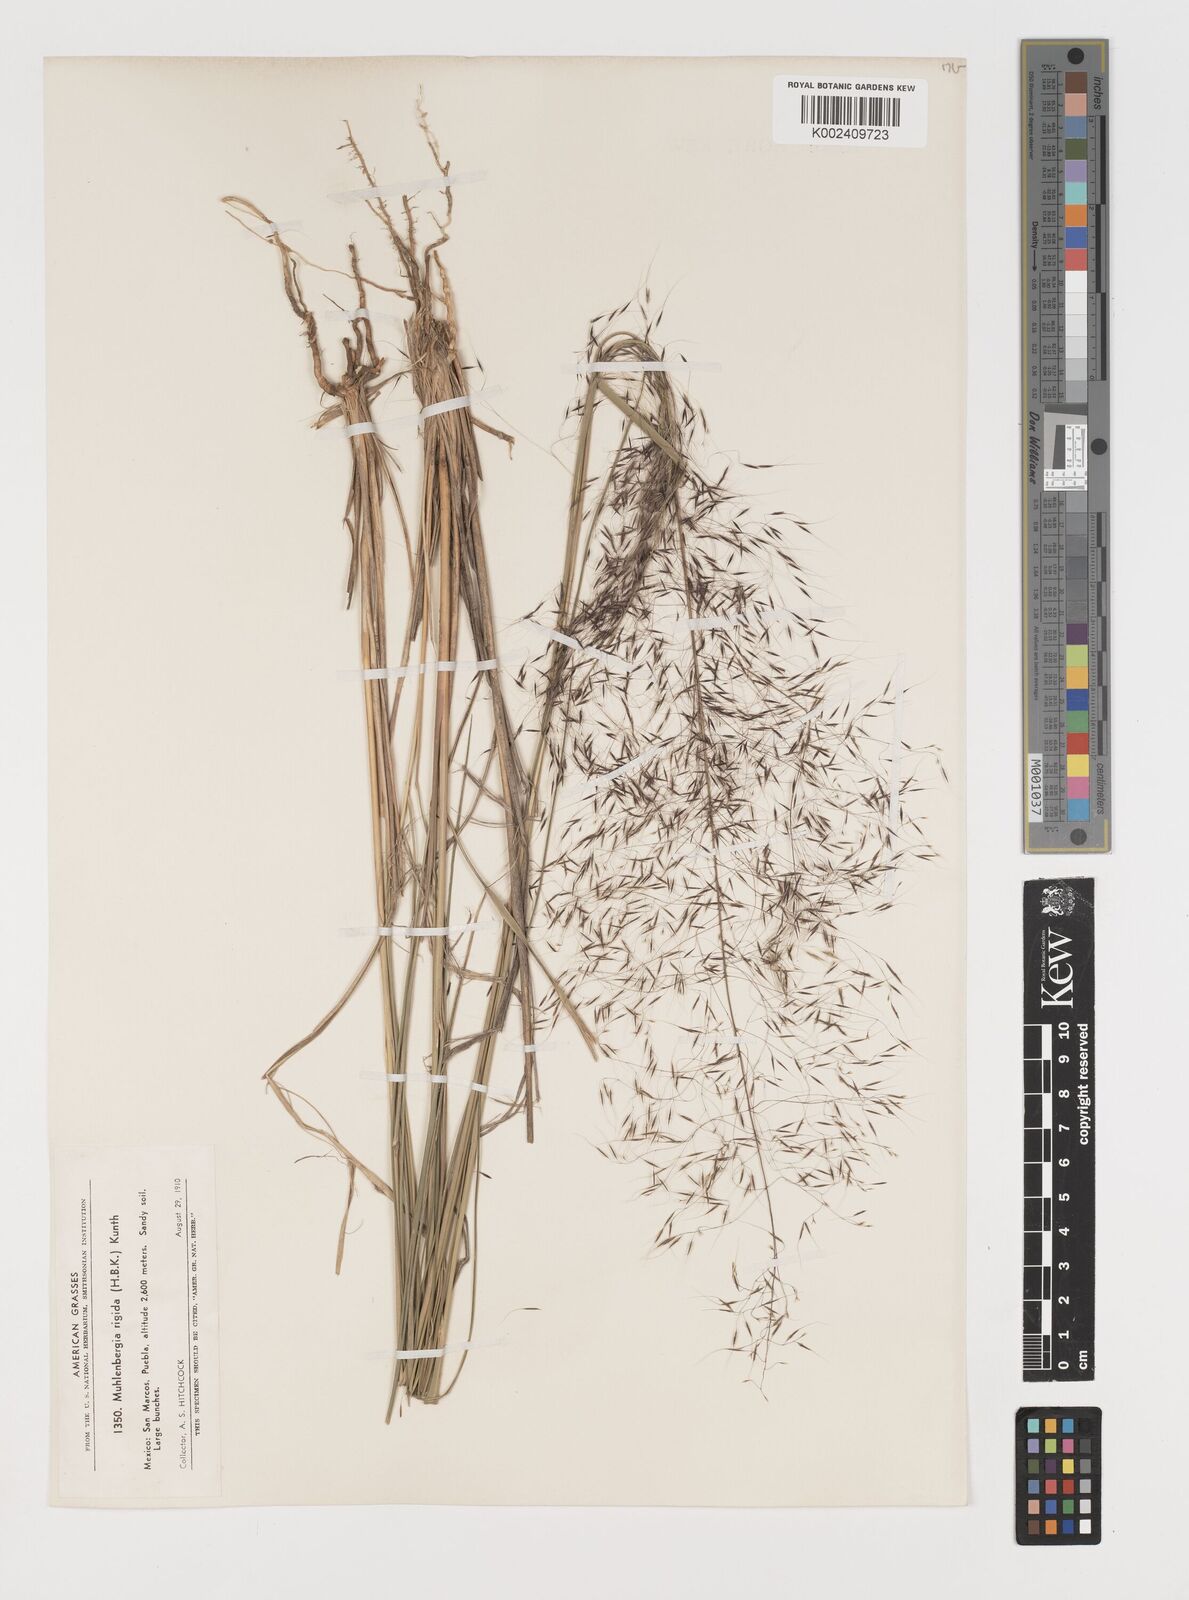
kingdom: Plantae
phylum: Tracheophyta
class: Liliopsida
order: Poales
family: Poaceae
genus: Muhlenbergia
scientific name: Muhlenbergia rigida
